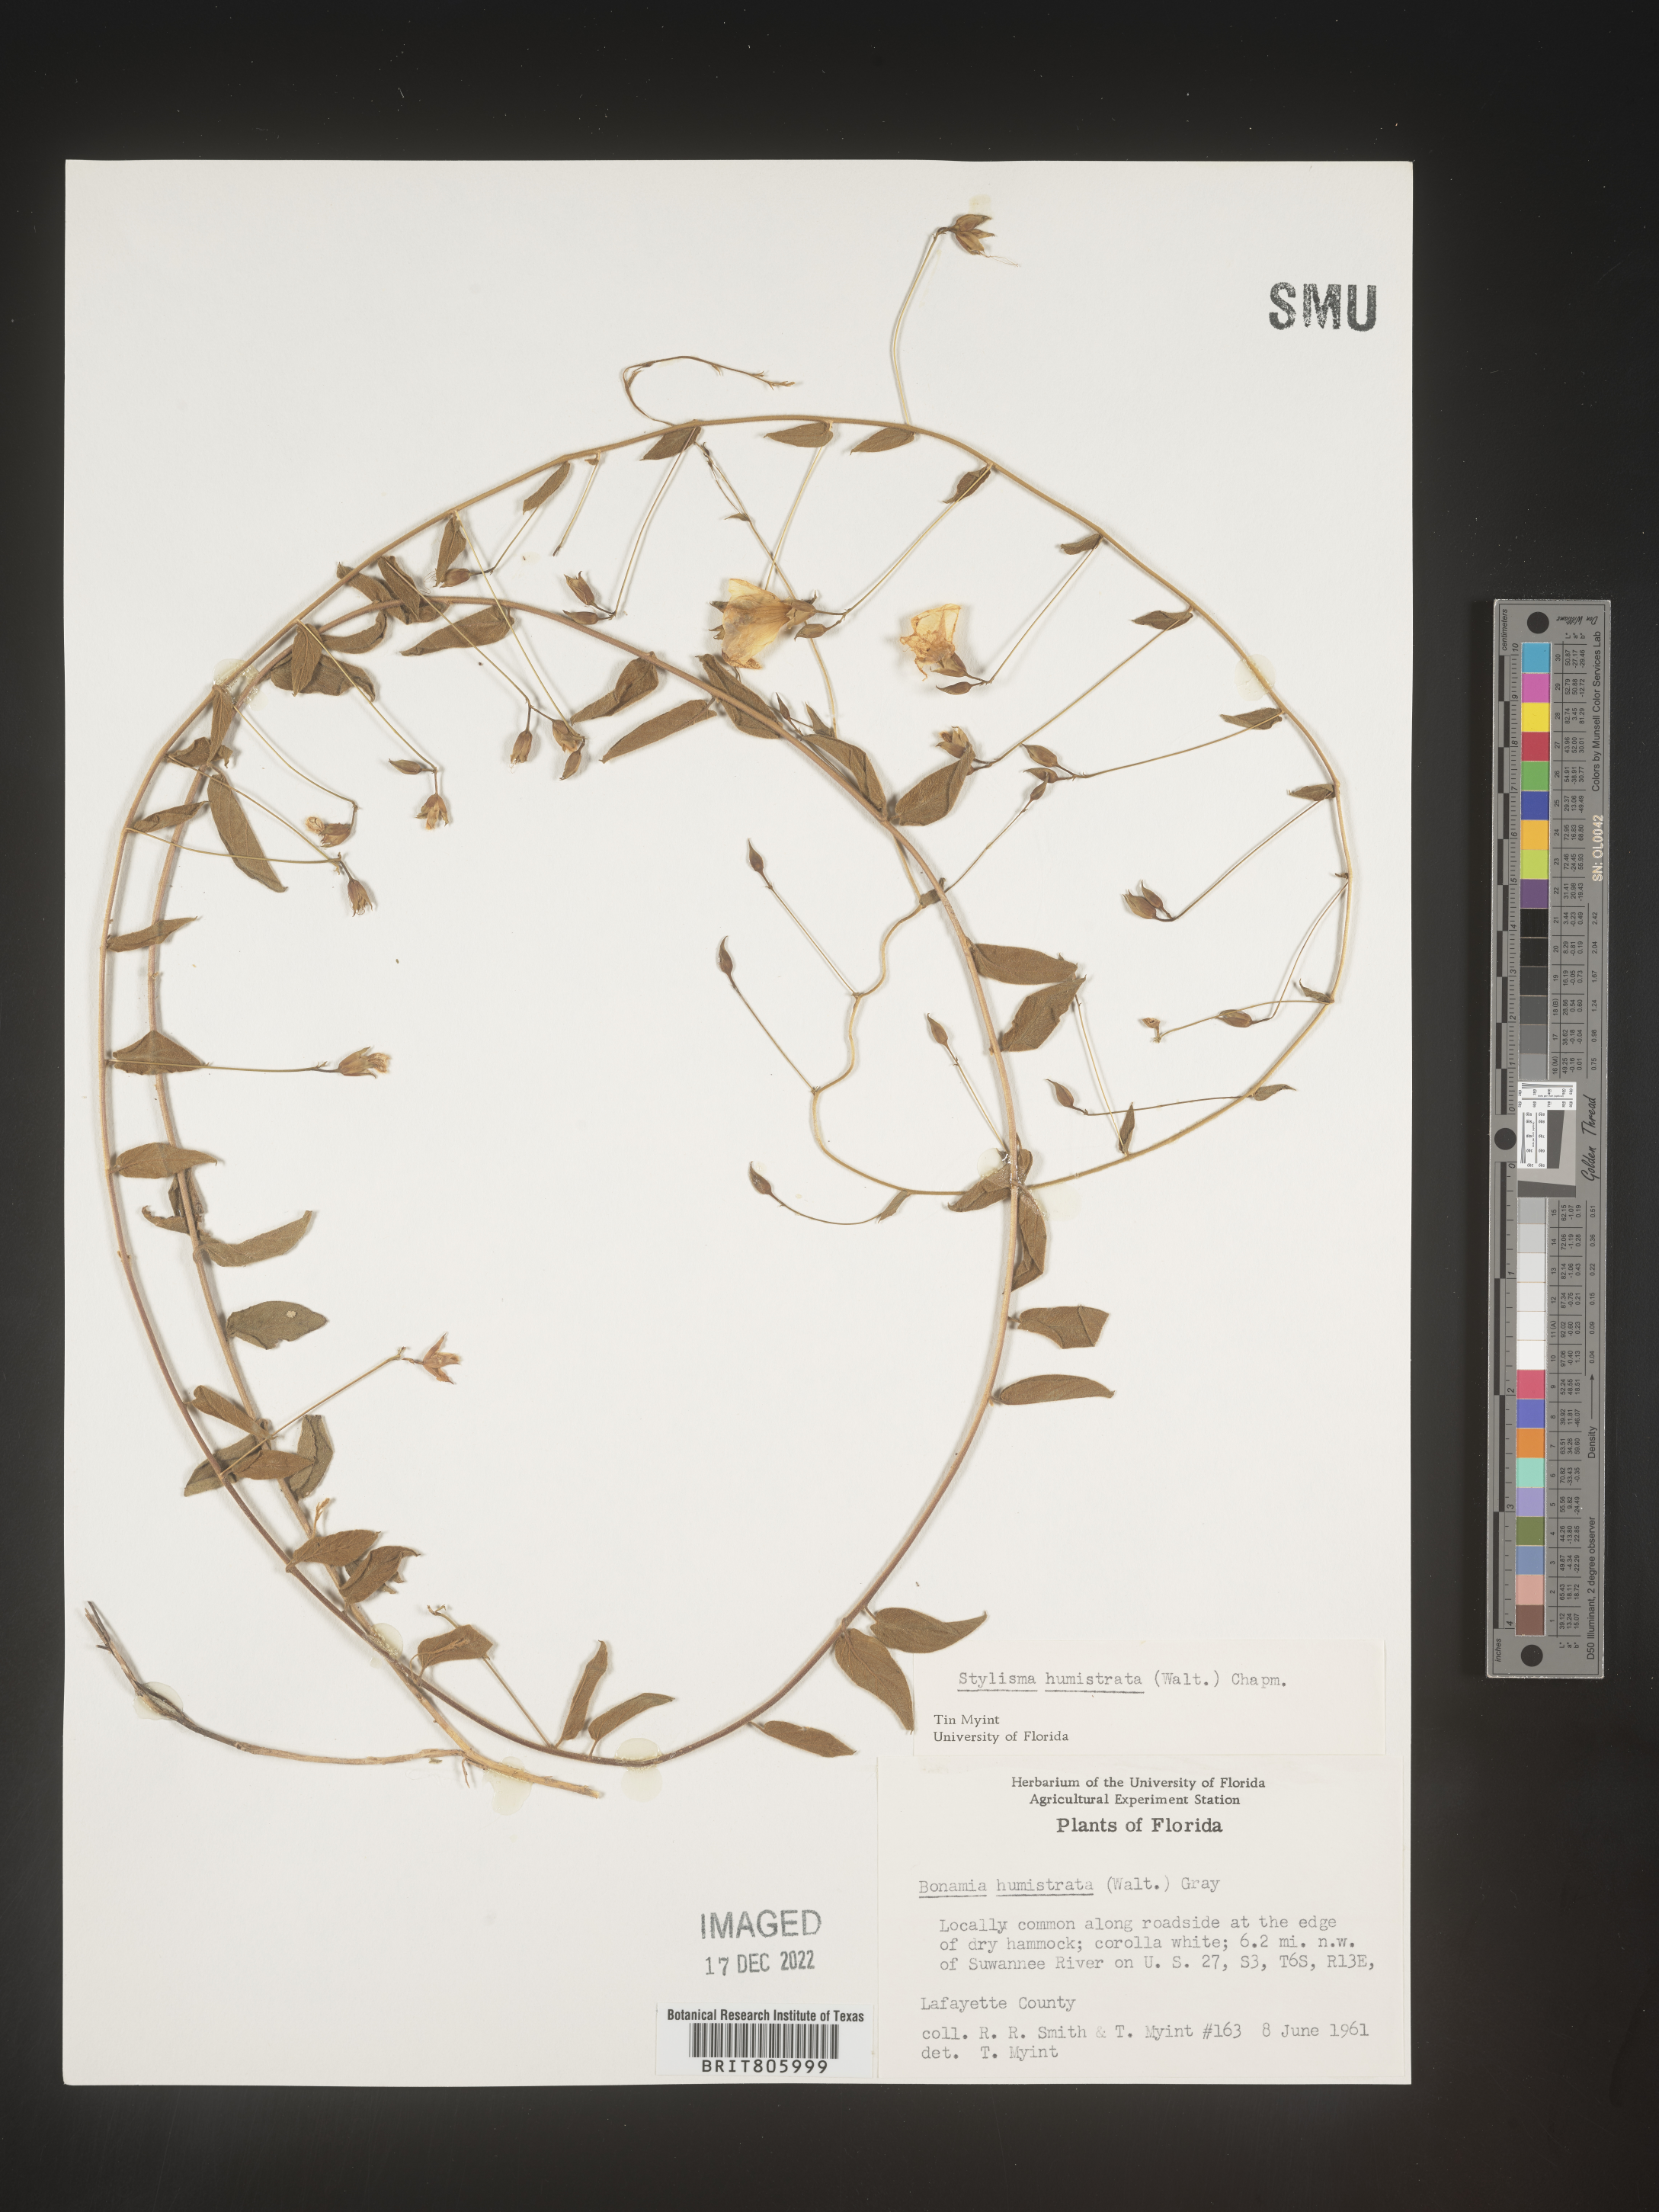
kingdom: Plantae
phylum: Tracheophyta
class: Magnoliopsida
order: Solanales
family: Convolvulaceae
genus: Stylisma
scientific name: Stylisma humistrata
